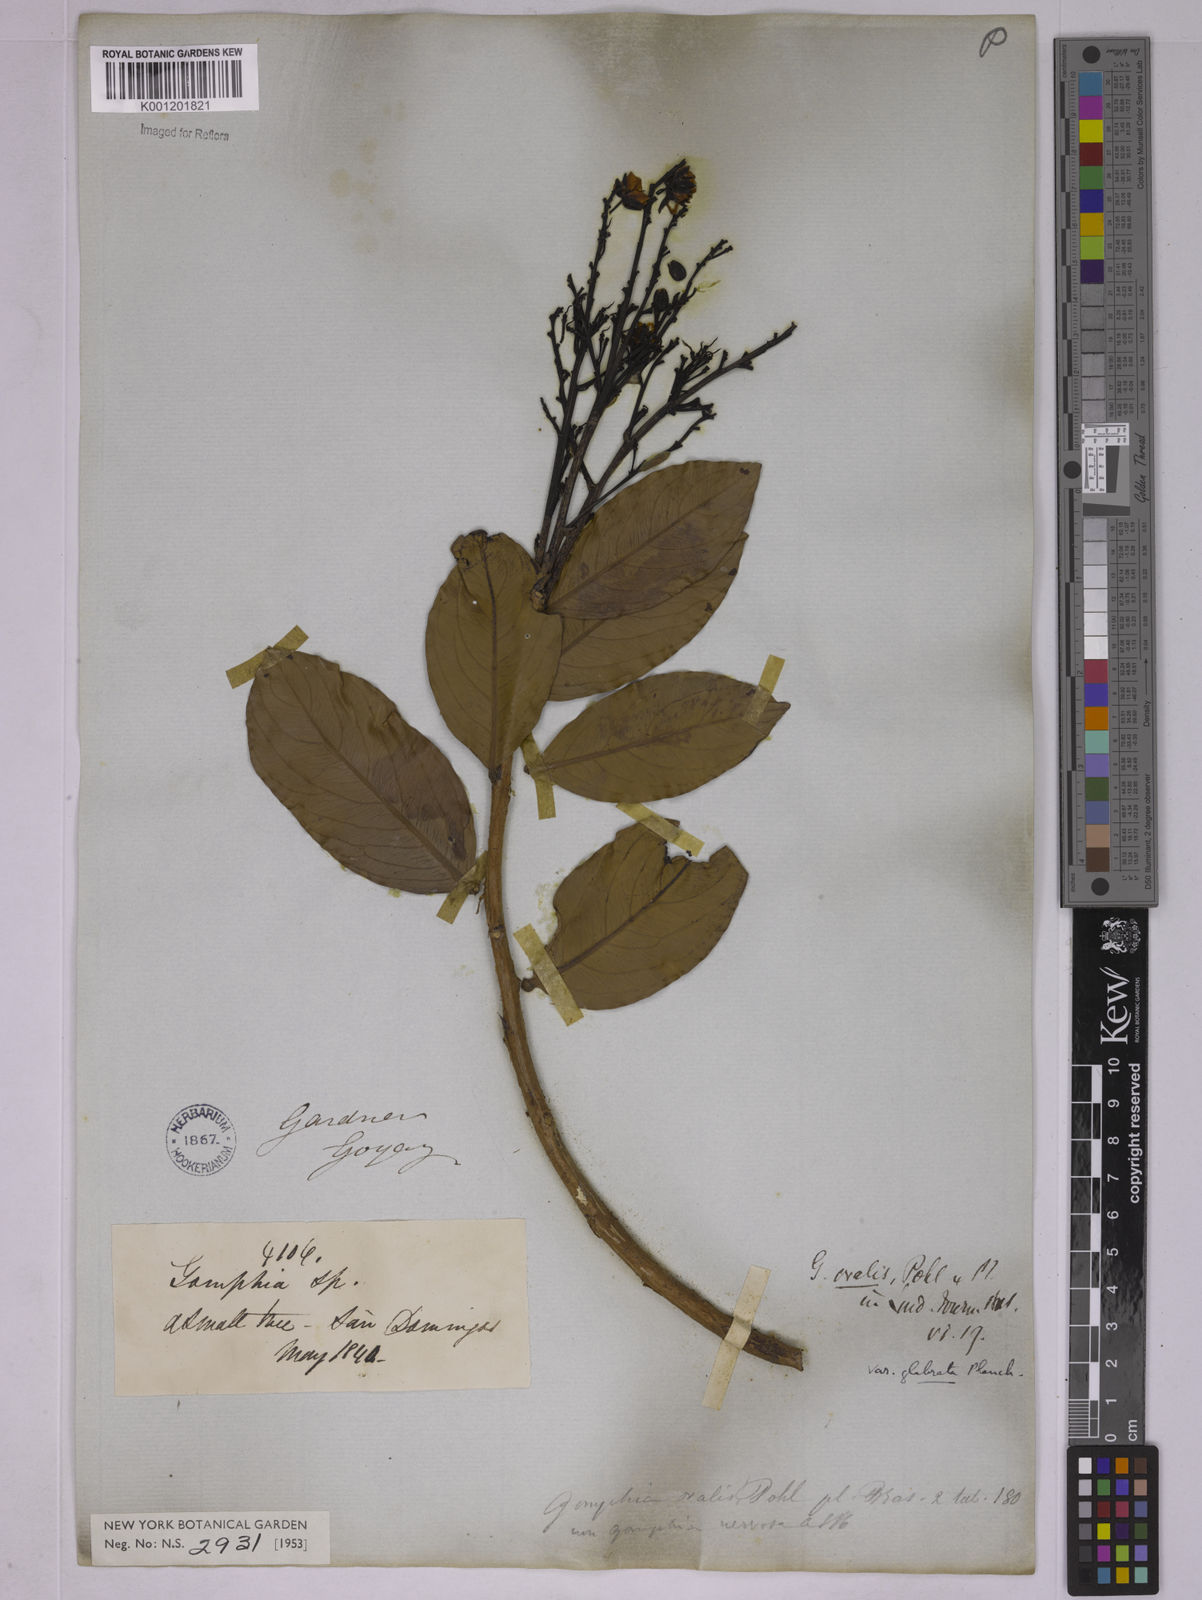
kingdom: Plantae
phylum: Tracheophyta
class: Magnoliopsida
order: Malpighiales
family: Ochnaceae
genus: Ouratea
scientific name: Ouratea ovalis
